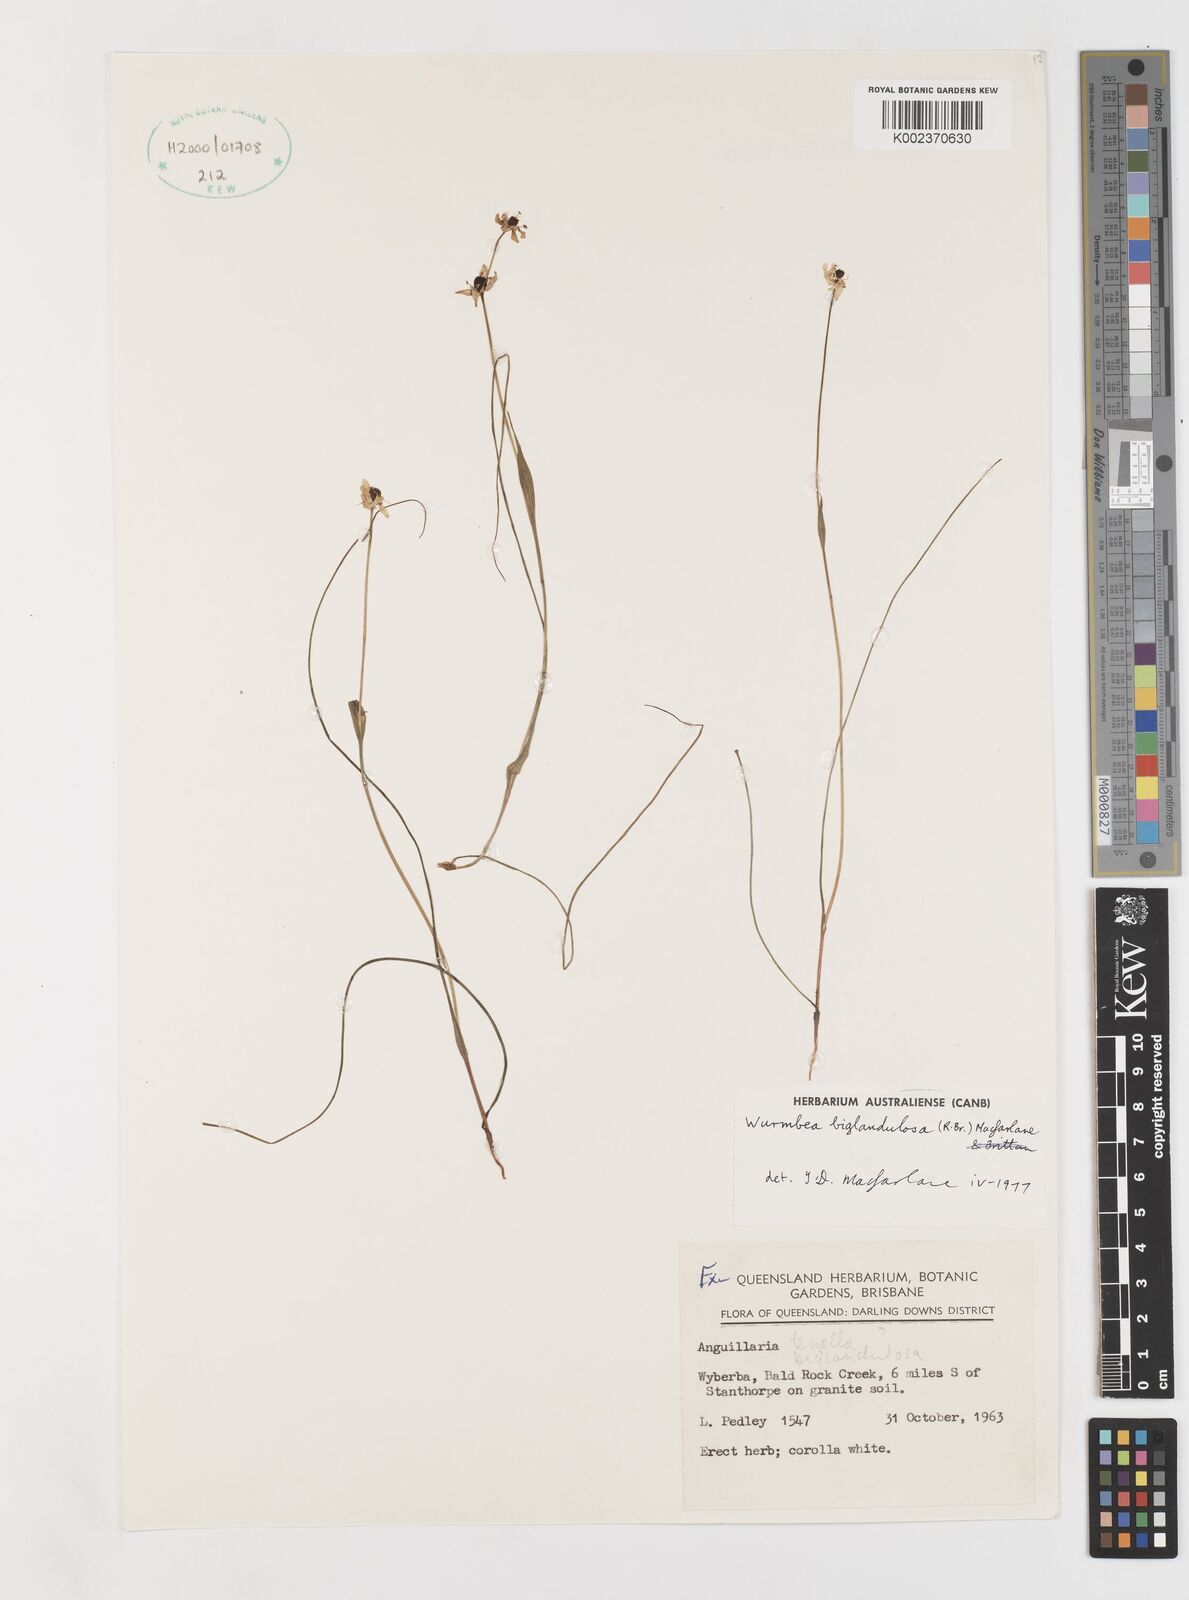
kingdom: Plantae
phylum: Tracheophyta
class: Liliopsida
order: Liliales
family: Colchicaceae
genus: Wurmbea
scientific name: Wurmbea biglandulosa
